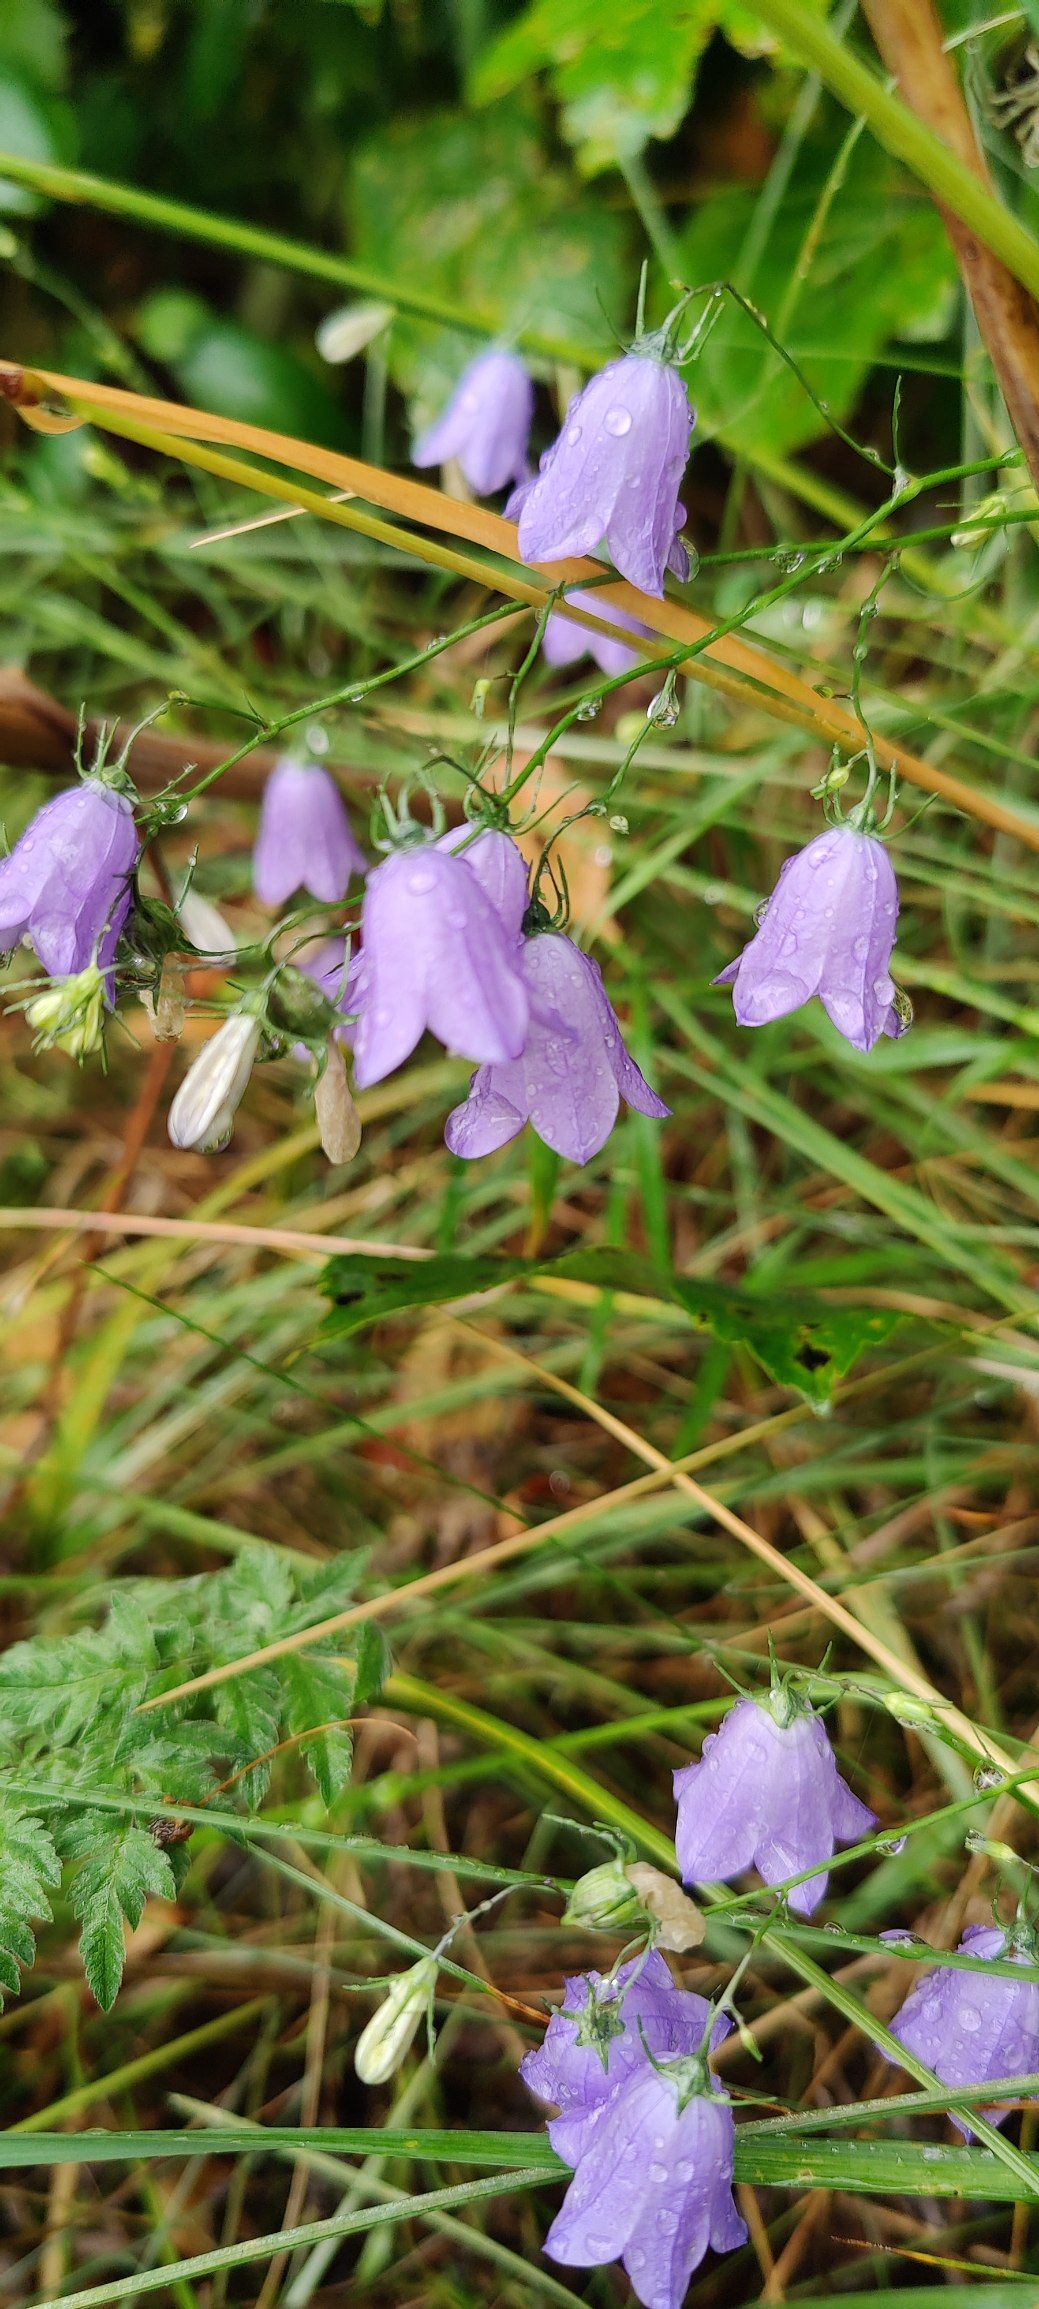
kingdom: Plantae
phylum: Tracheophyta
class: Magnoliopsida
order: Asterales
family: Campanulaceae
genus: Campanula
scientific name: Campanula rotundifolia
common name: Liden klokke
